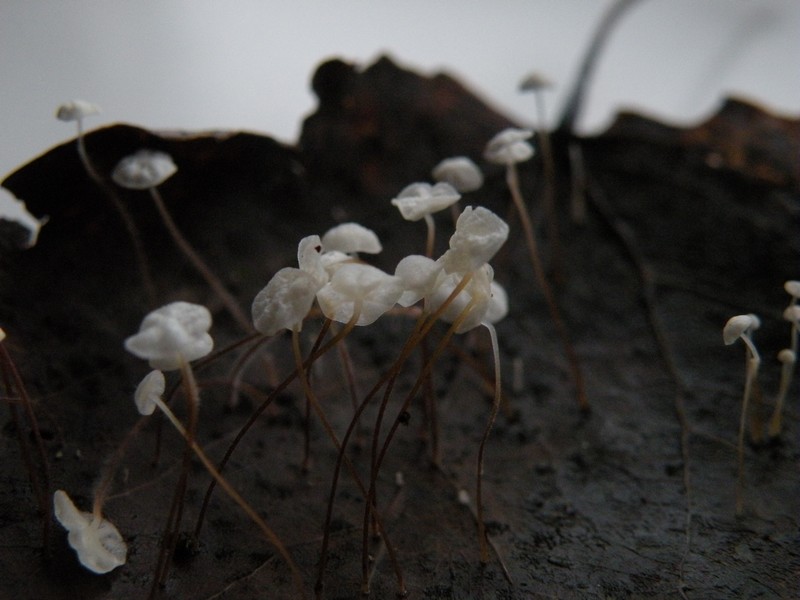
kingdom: Fungi
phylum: Basidiomycota
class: Agaricomycetes
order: Agaricales
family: Marasmiaceae
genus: Marasmius
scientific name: Marasmius epiphyllus
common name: blad-bruskhat
